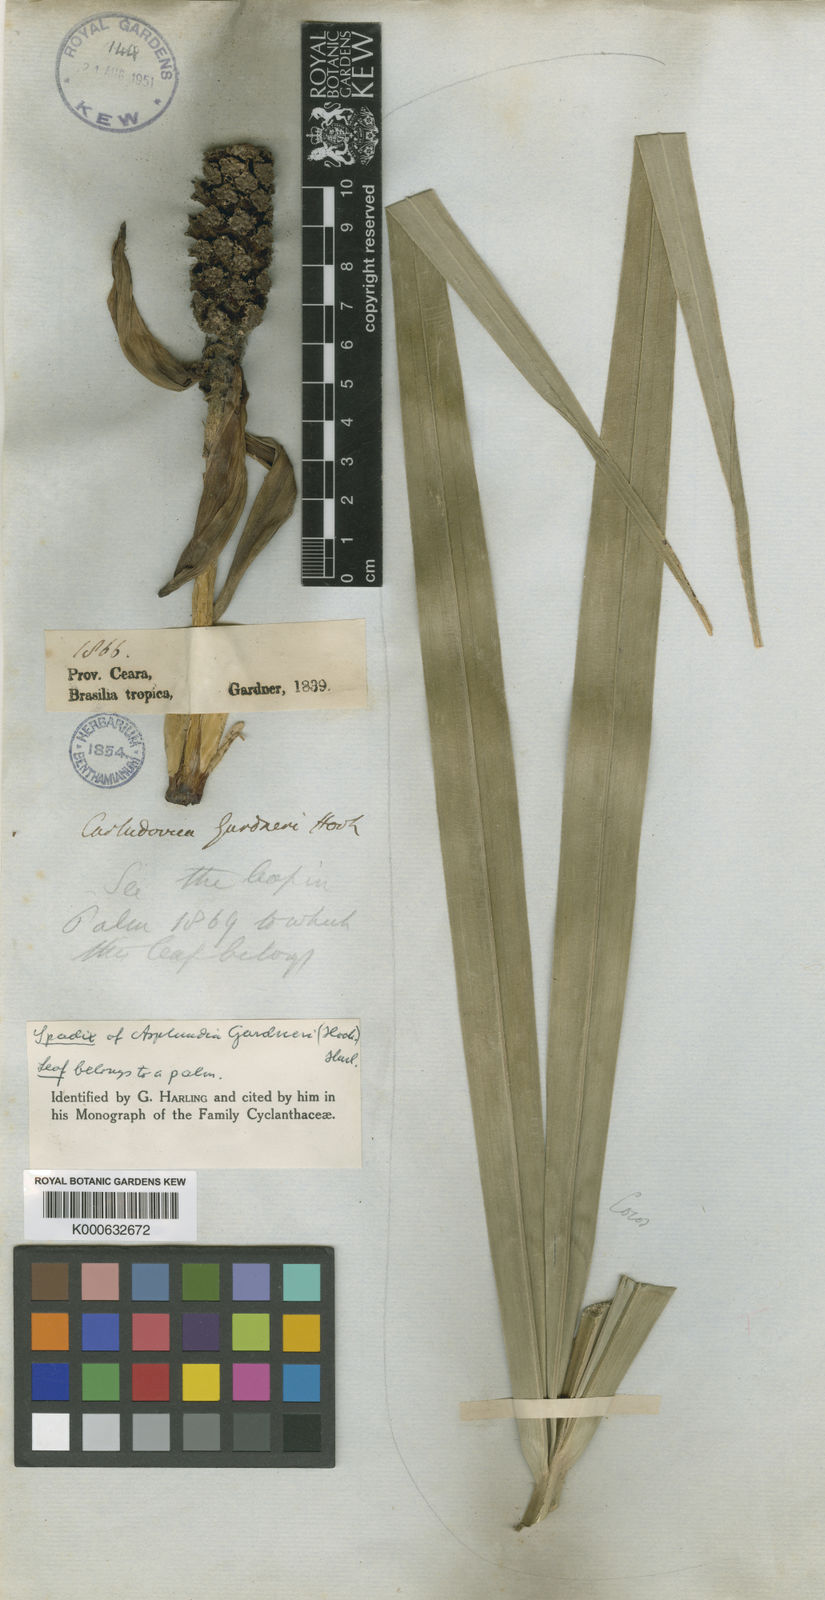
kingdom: Plantae
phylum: Tracheophyta
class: Liliopsida
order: Pandanales
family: Cyclanthaceae
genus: Asplundia
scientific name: Asplundia gardneri
